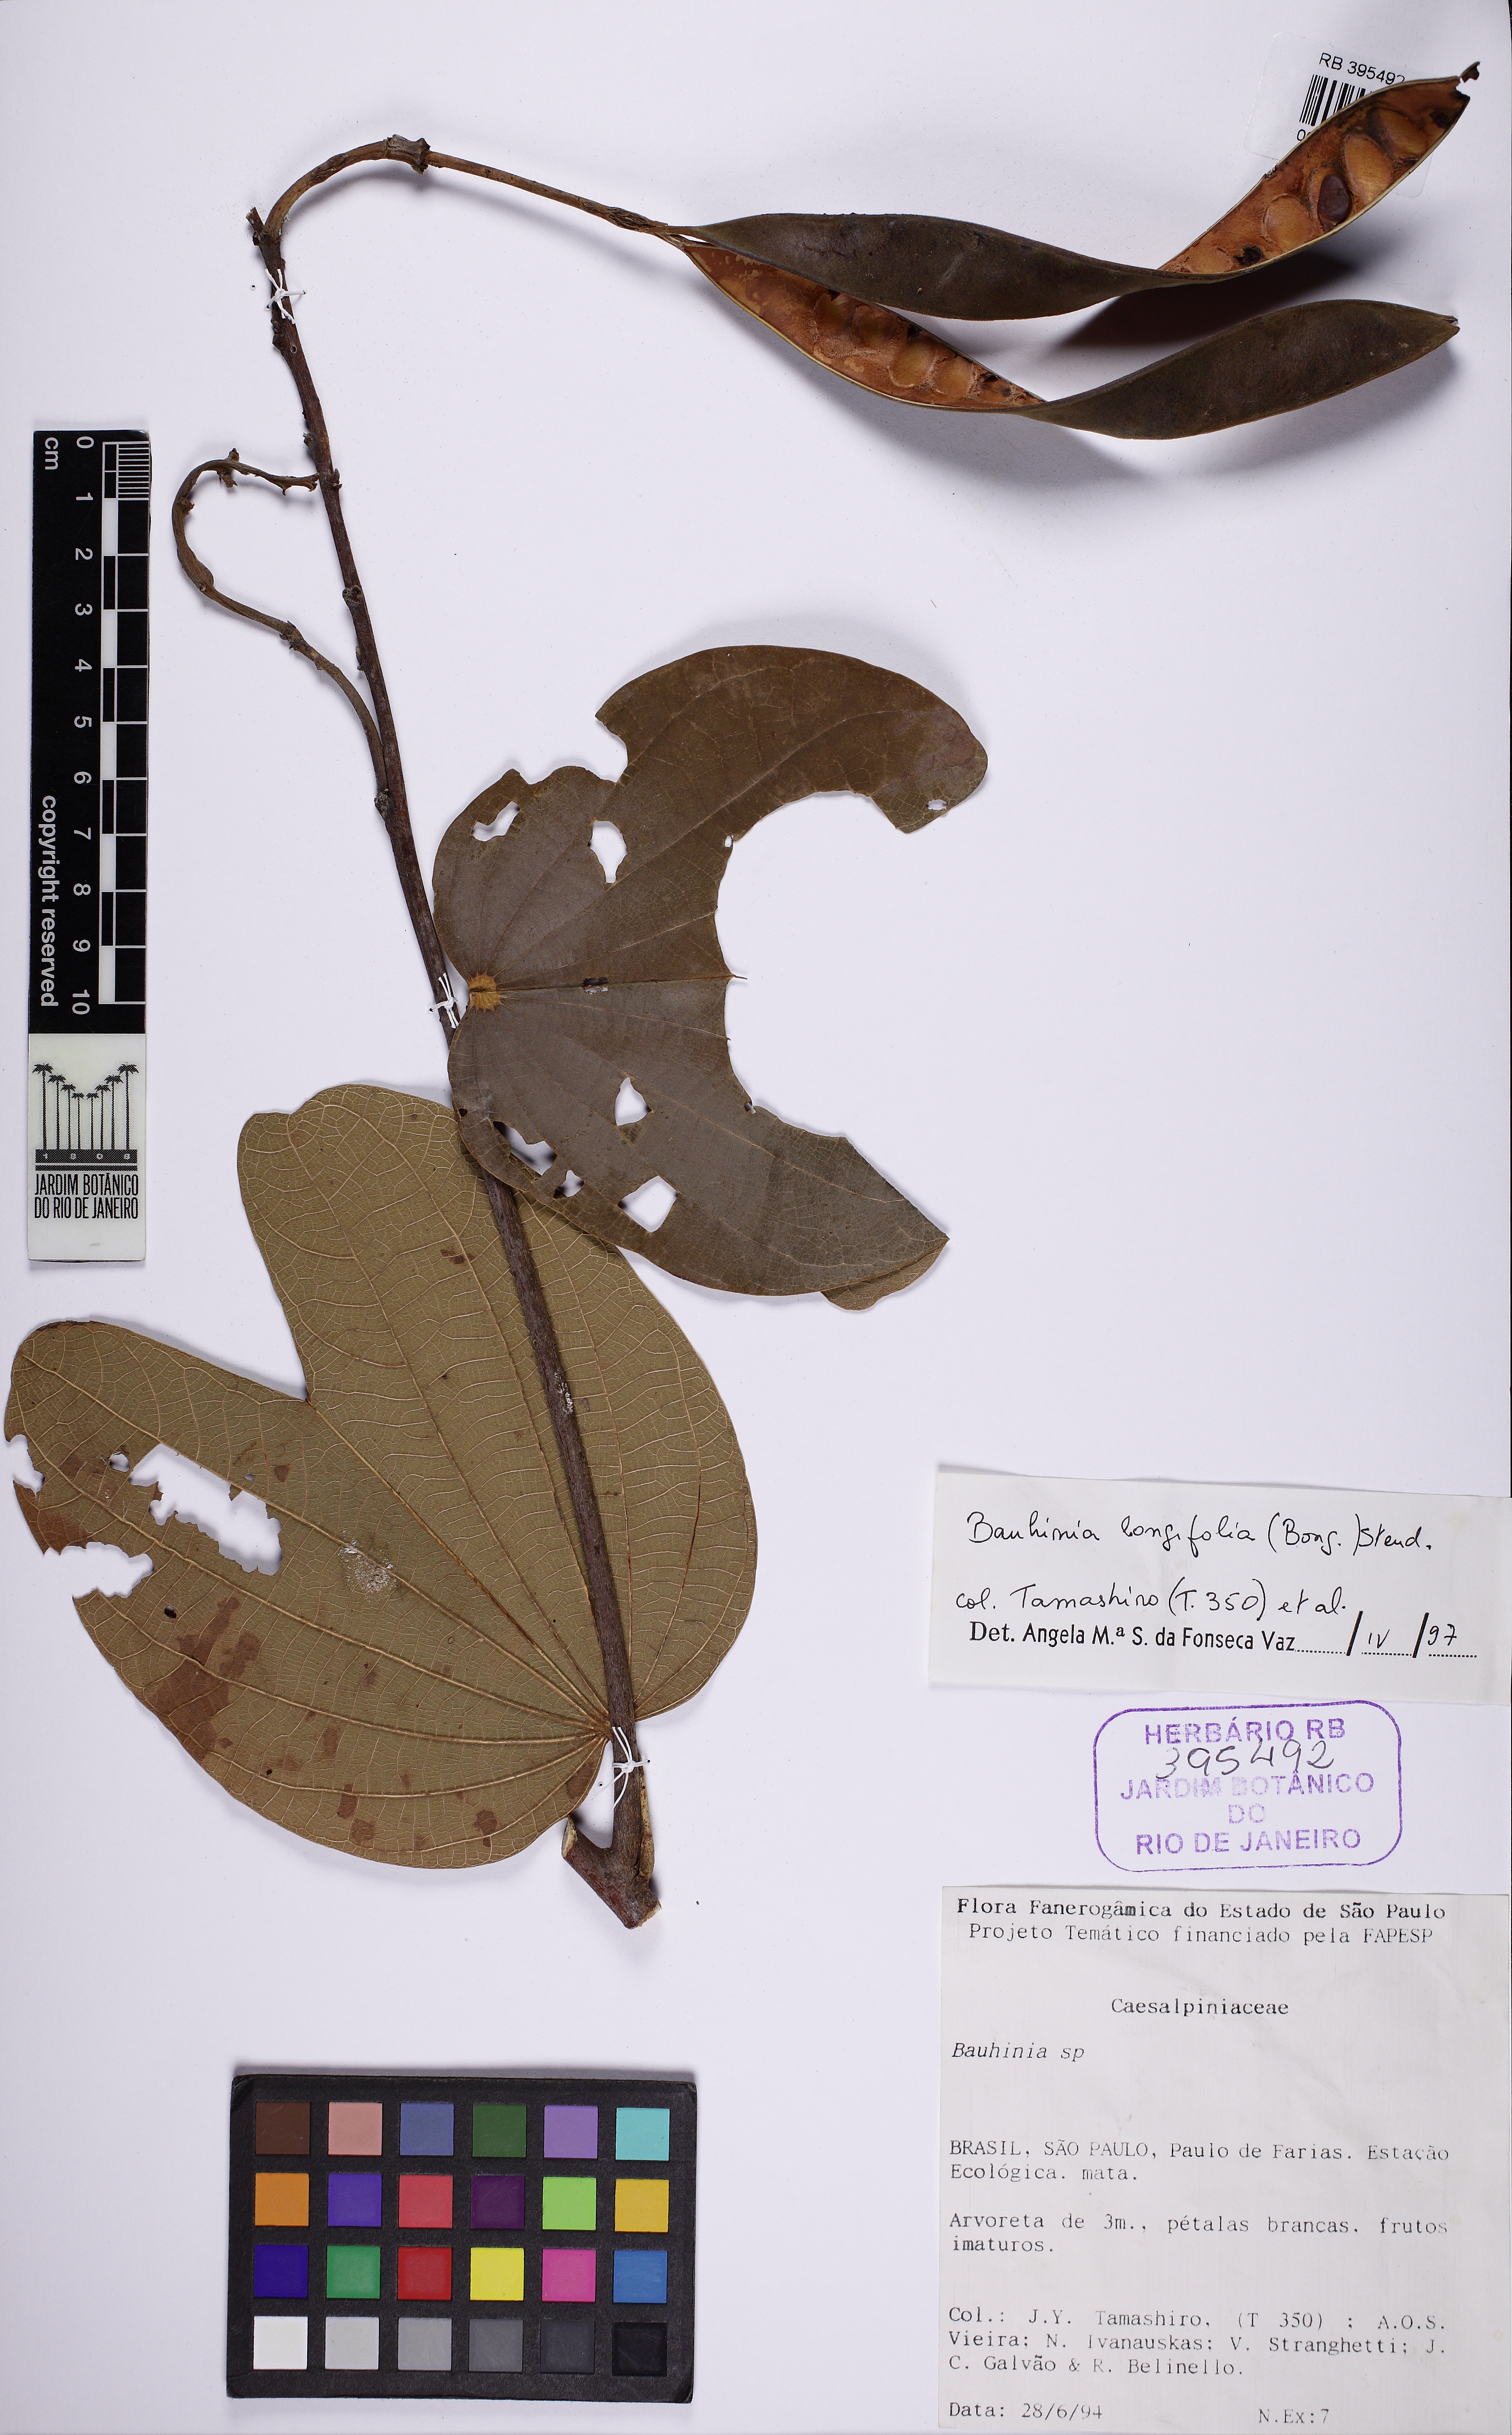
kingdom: Plantae
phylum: Tracheophyta
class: Magnoliopsida
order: Fabales
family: Fabaceae
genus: Bauhinia
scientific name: Bauhinia longifolia
